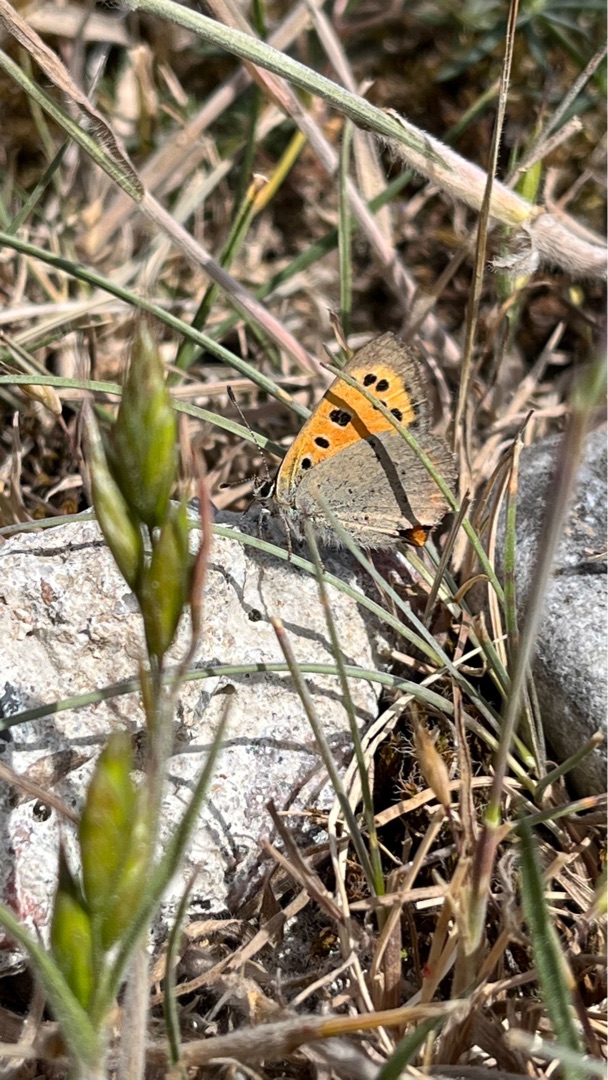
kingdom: Animalia
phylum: Arthropoda
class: Insecta
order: Lepidoptera
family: Lycaenidae
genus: Lycaena
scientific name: Lycaena phlaeas
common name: Lille ildfugl
